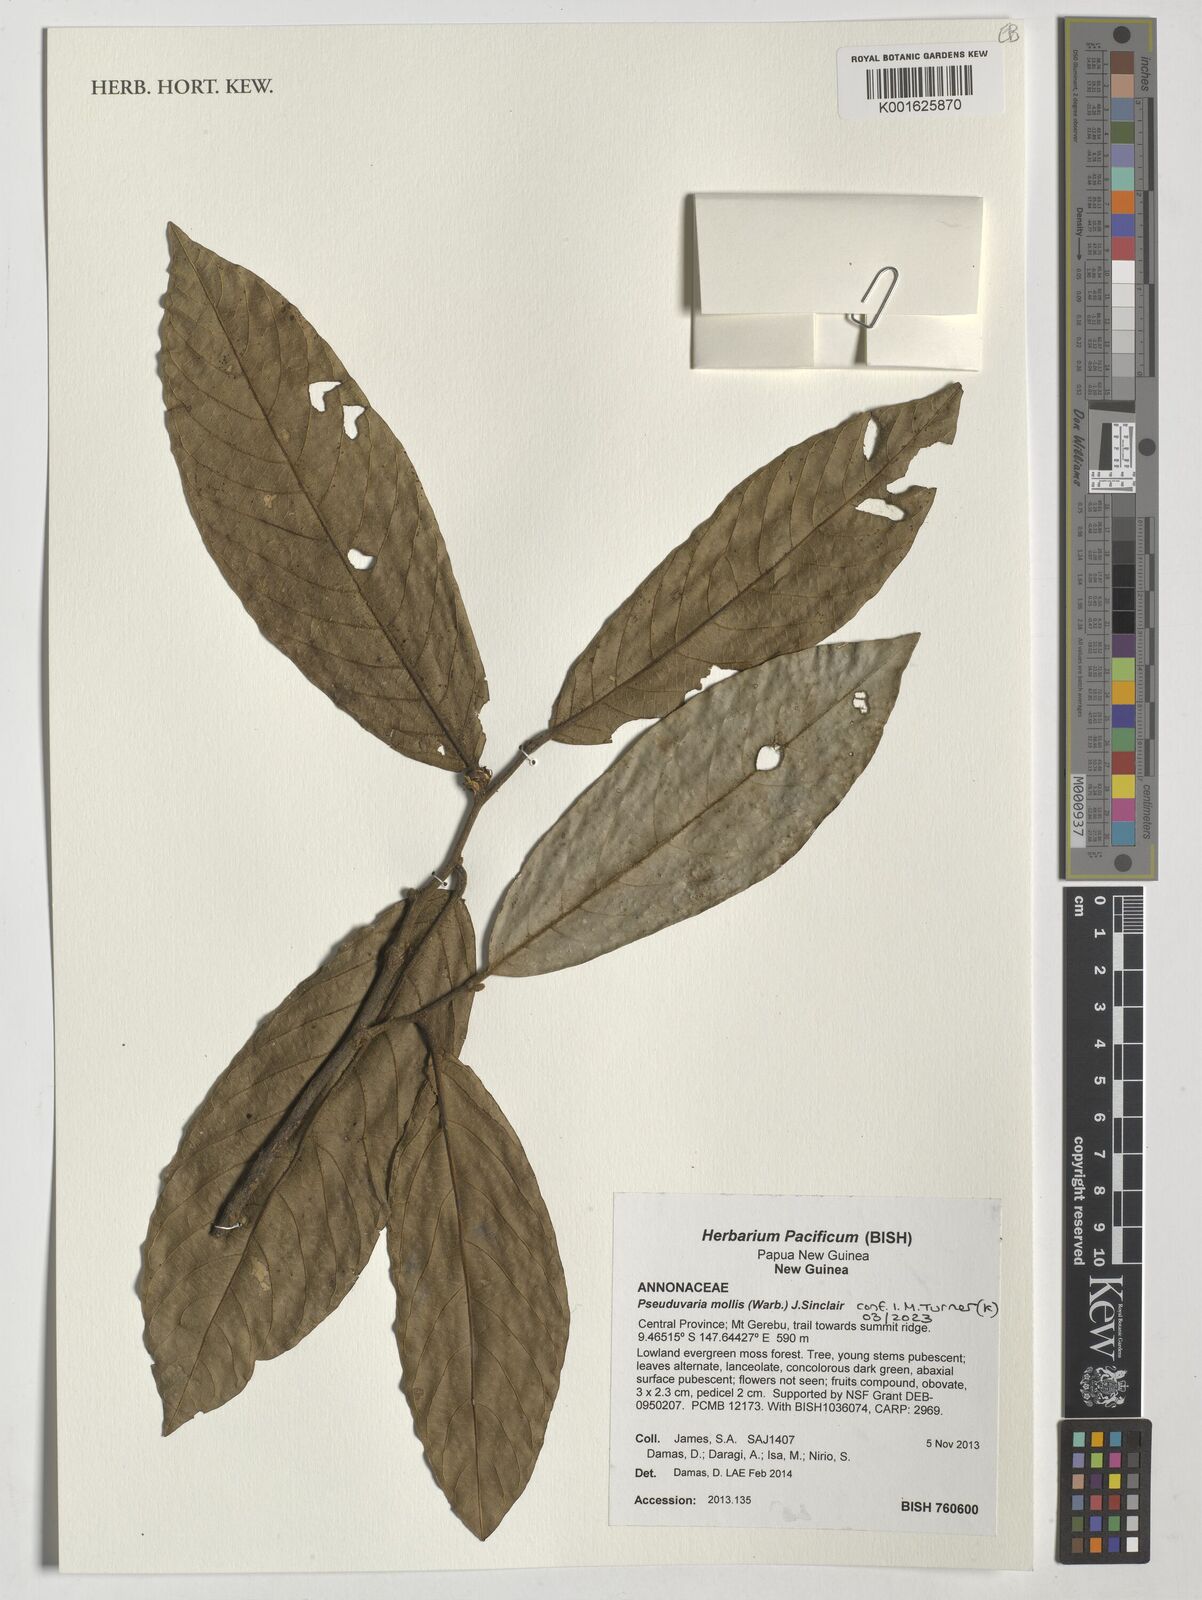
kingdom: Plantae
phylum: Tracheophyta
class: Magnoliopsida
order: Magnoliales
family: Annonaceae
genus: Pseuduvaria
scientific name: Pseuduvaria mollis
